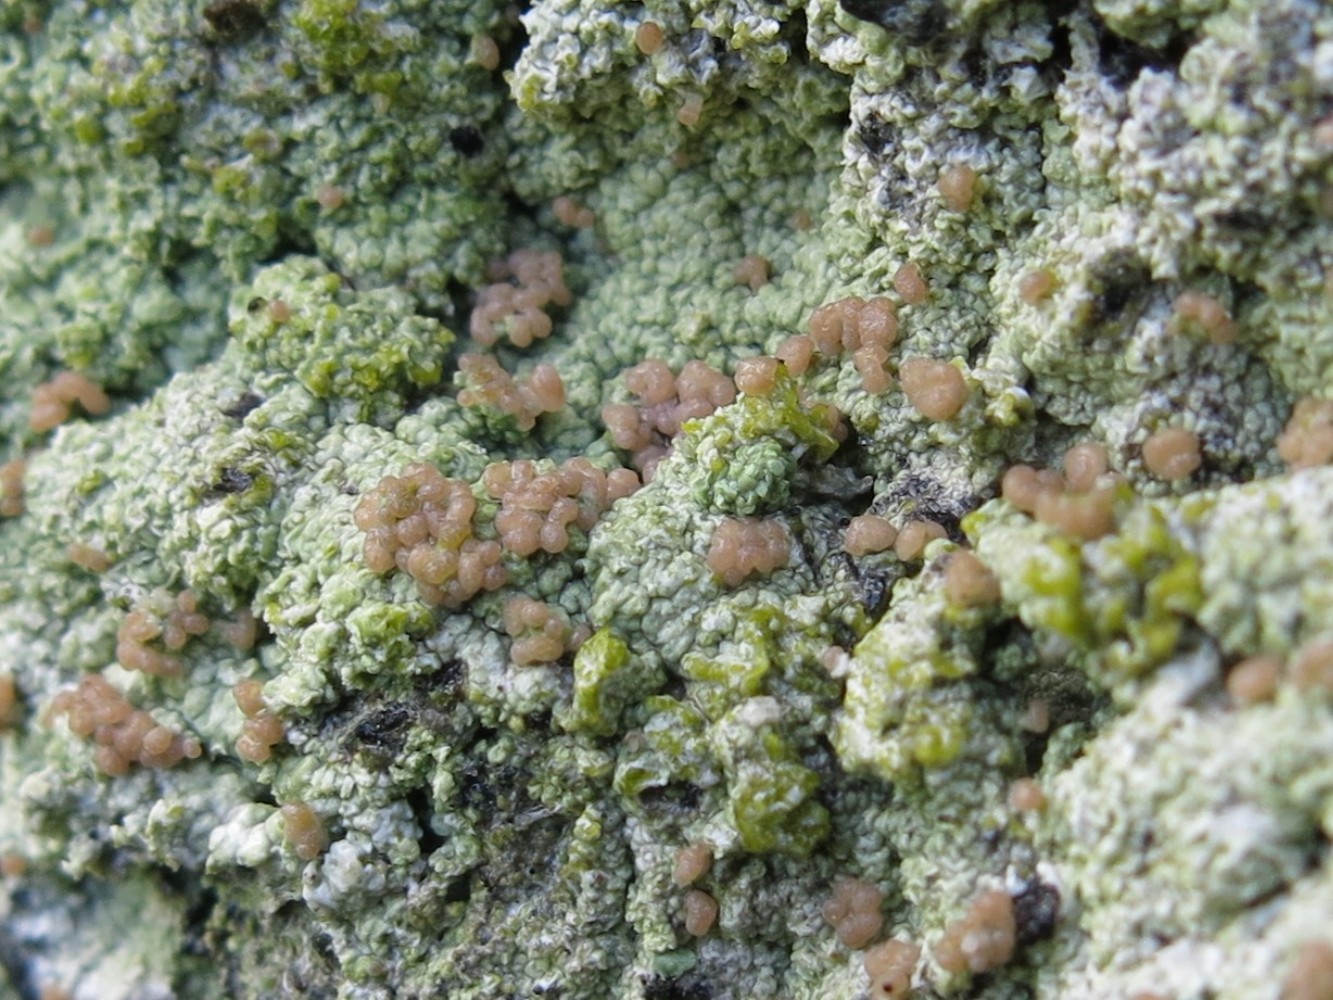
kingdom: Fungi
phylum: Ascomycota
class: Lecanoromycetes
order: Baeomycetales
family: Baeomycetaceae
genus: Baeomyces
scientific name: Baeomyces rufus
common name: rødbrun svampelav
